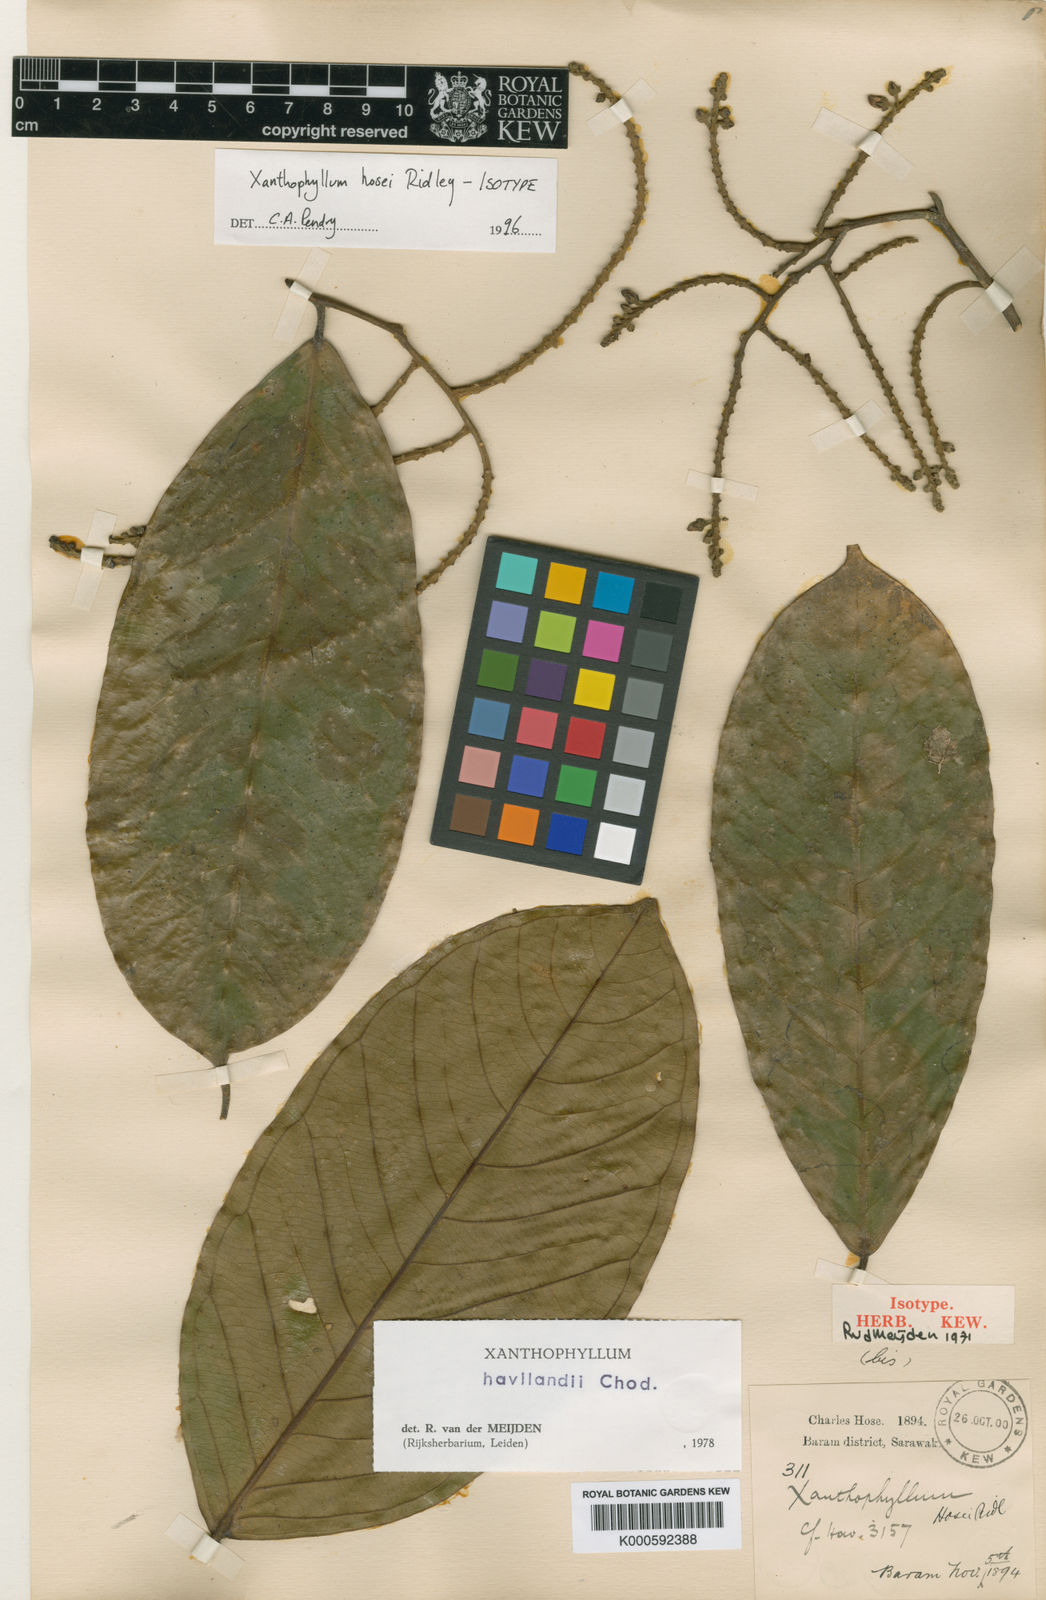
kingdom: Plantae
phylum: Tracheophyta
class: Magnoliopsida
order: Fabales
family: Polygalaceae
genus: Xanthophyllum
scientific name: Xanthophyllum havilandii
